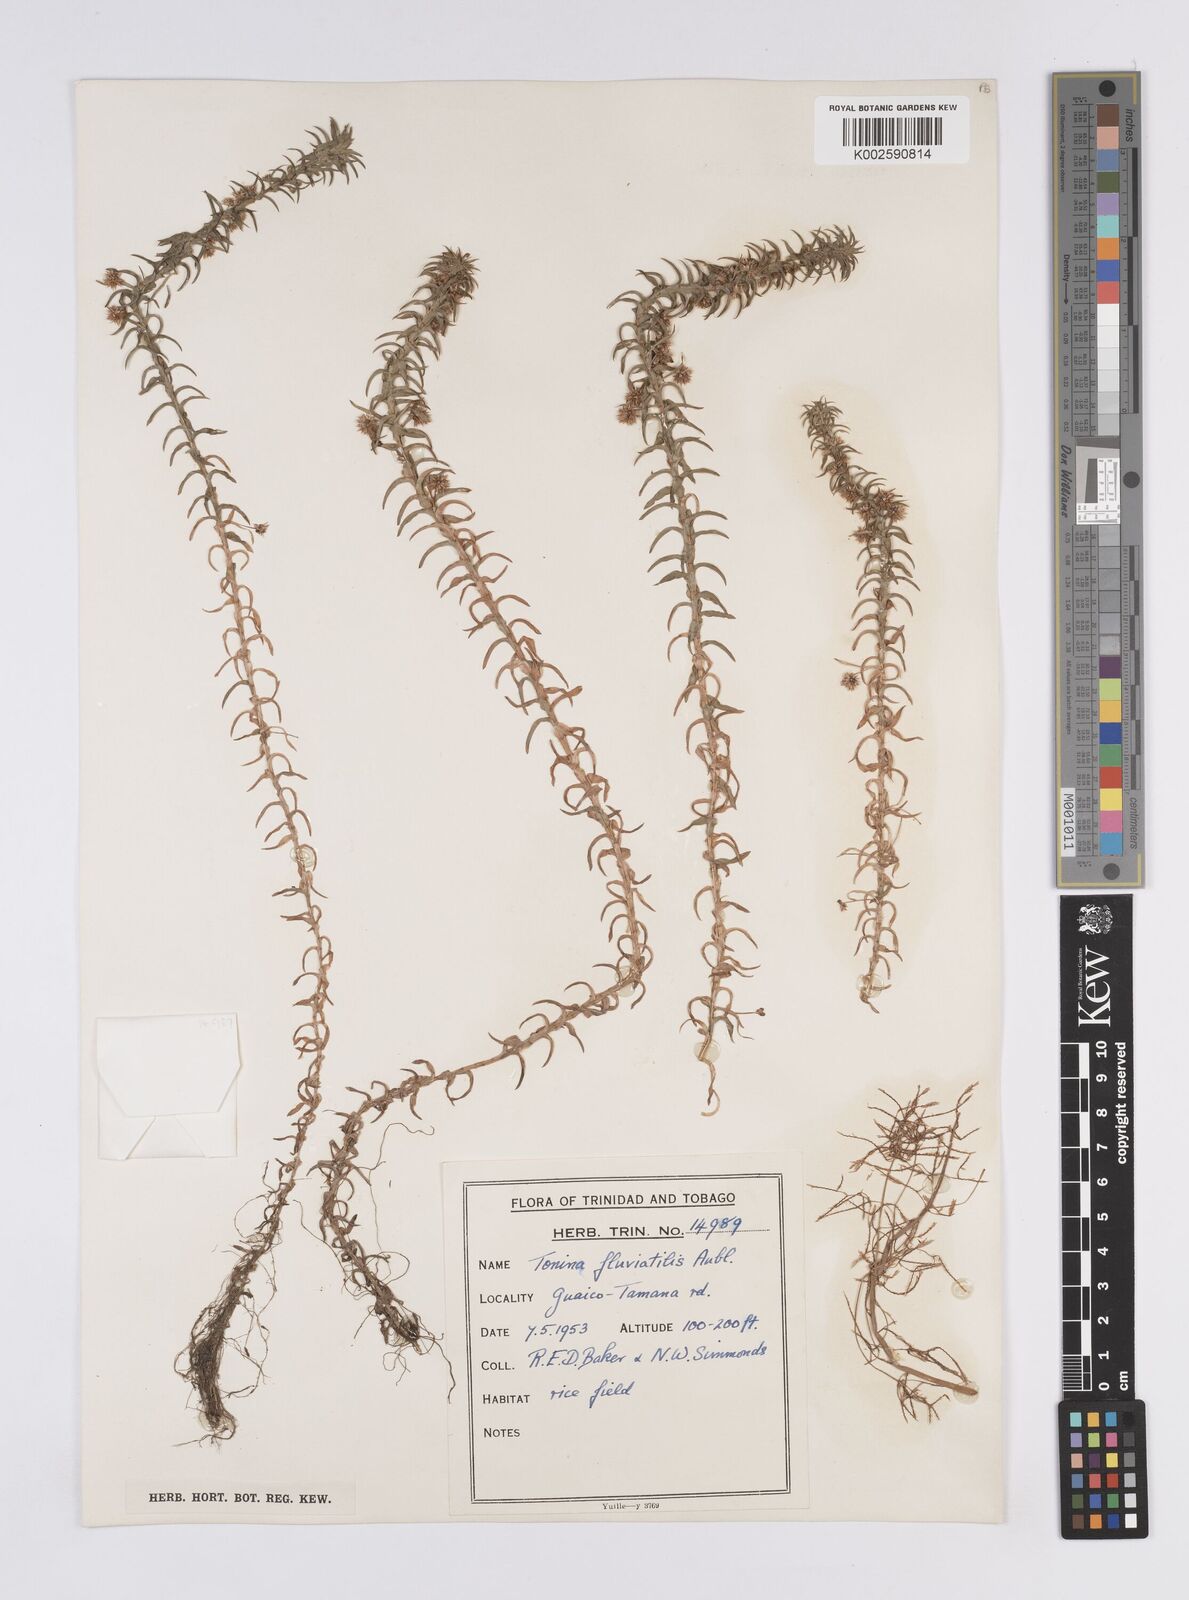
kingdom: Plantae
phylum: Tracheophyta
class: Liliopsida
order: Poales
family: Eriocaulaceae
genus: Paepalanthus
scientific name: Paepalanthus fluviatilis
